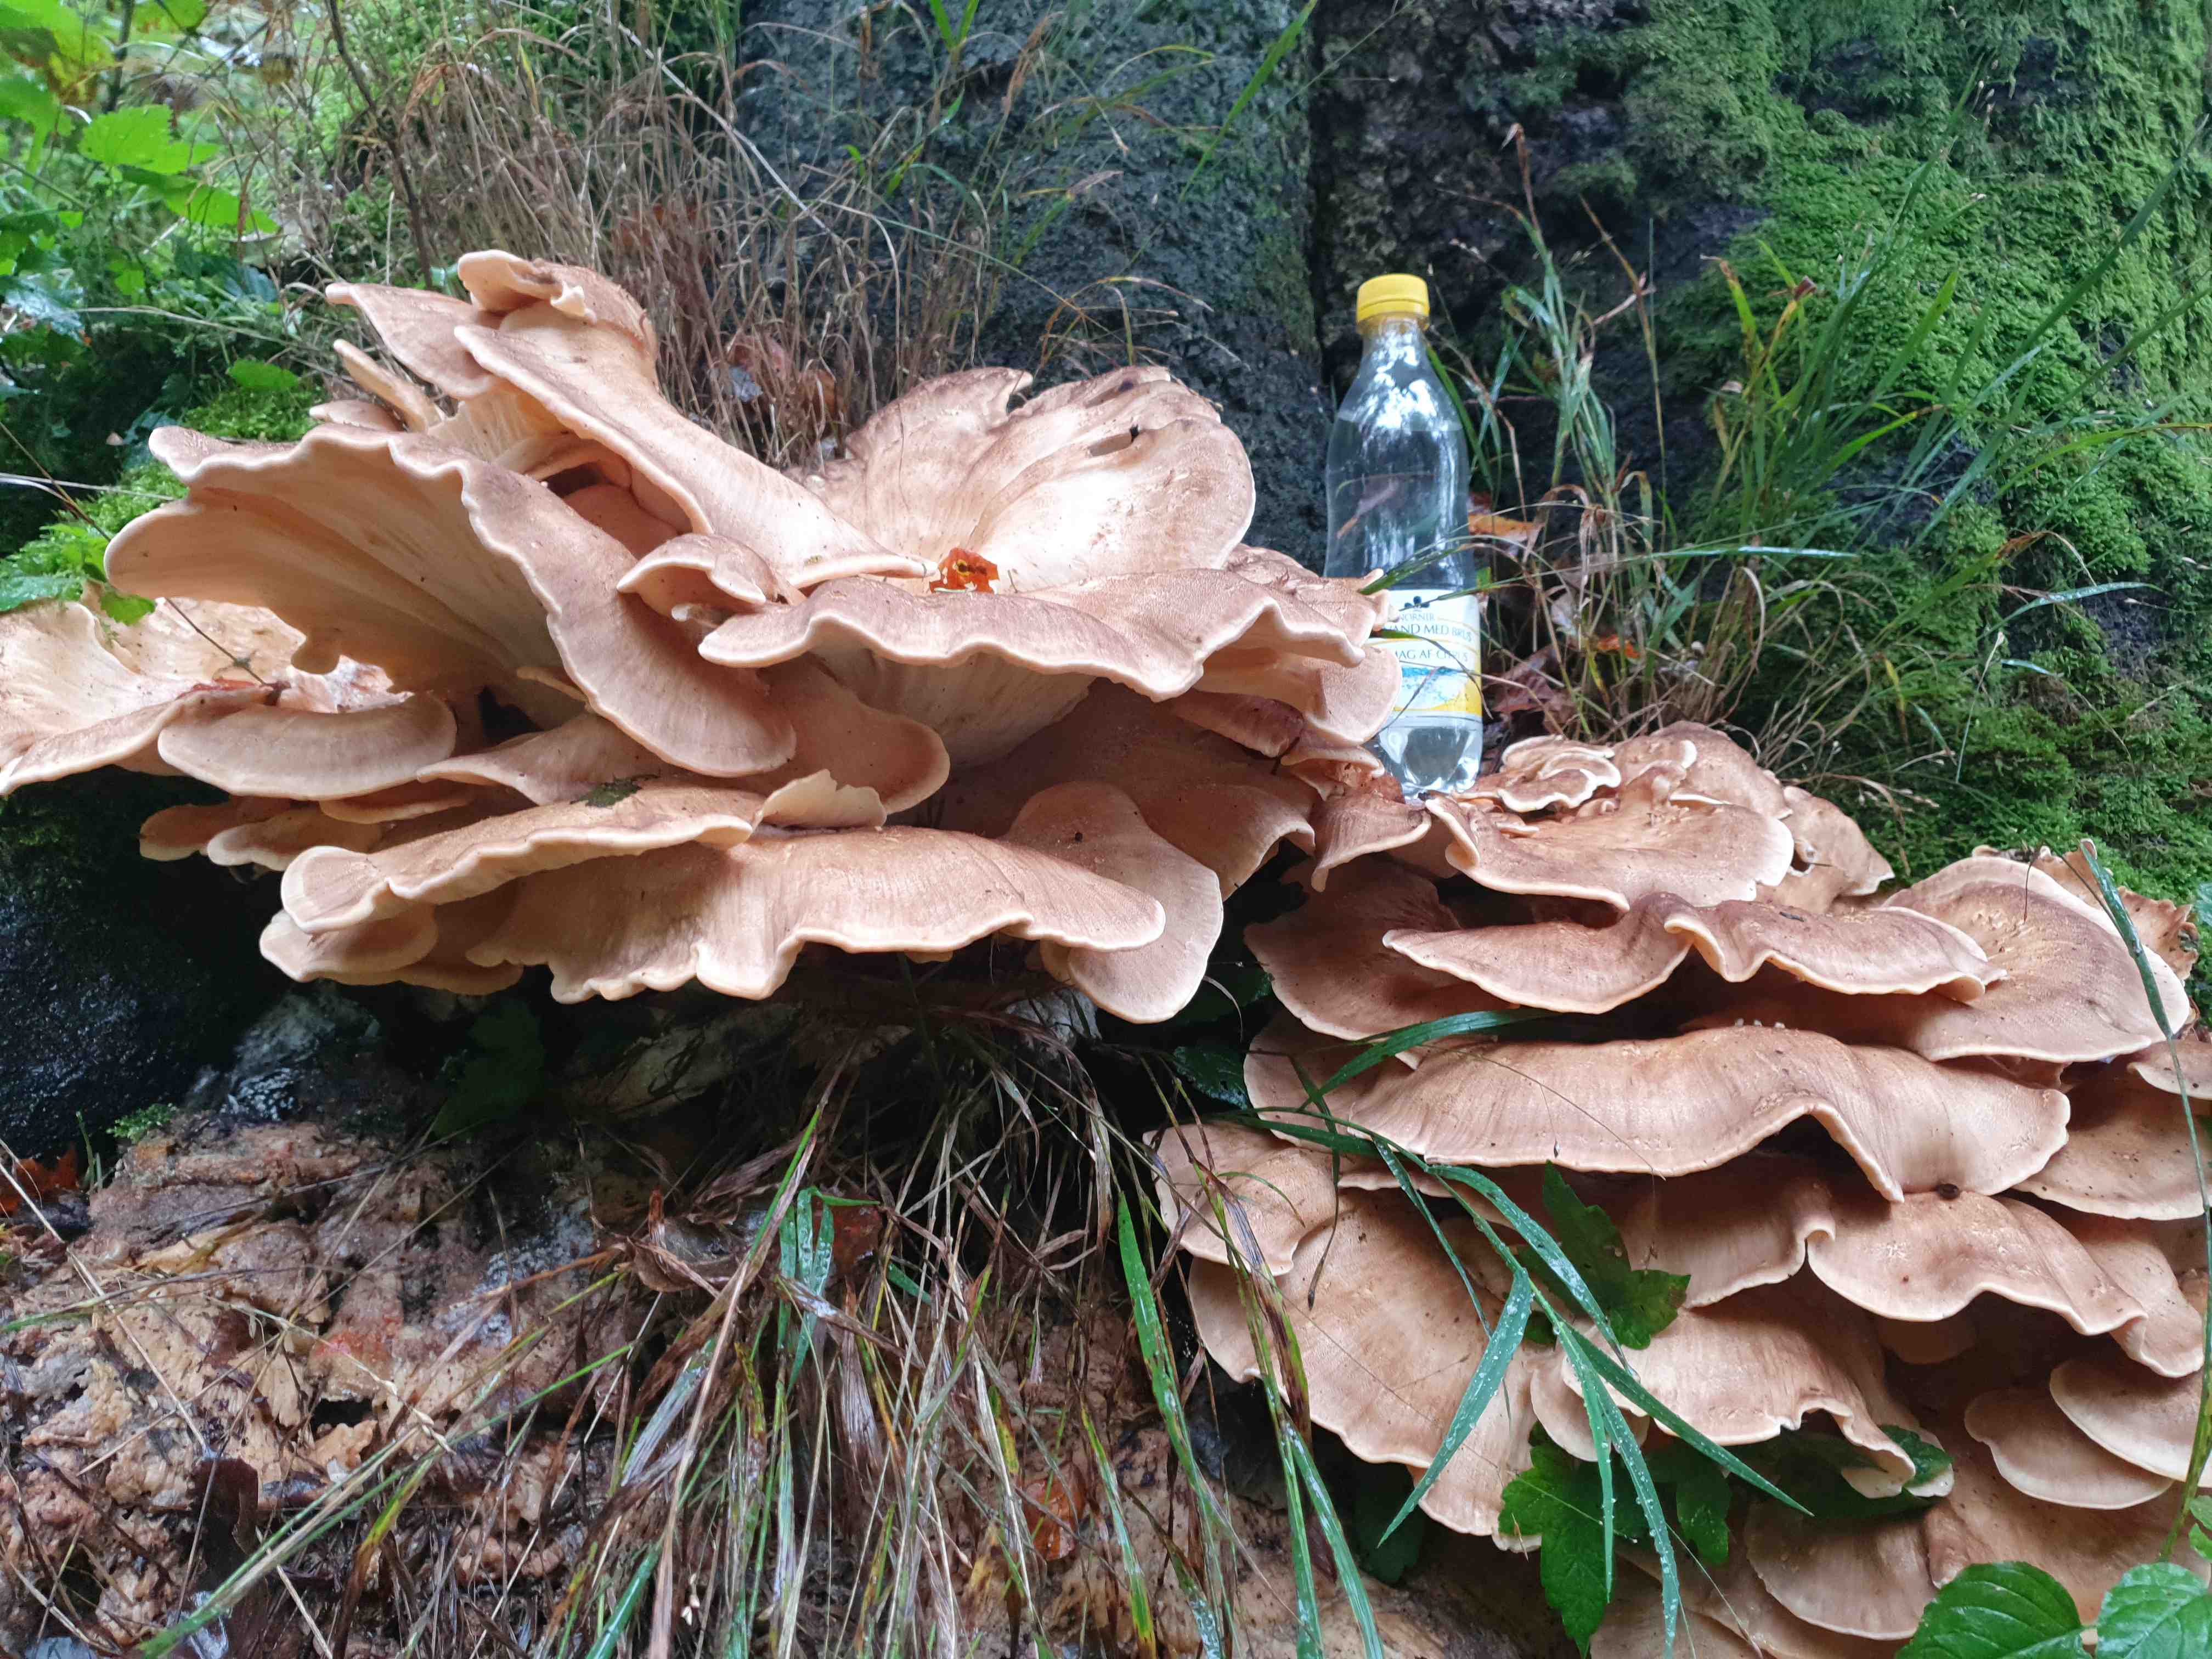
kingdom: Fungi
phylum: Basidiomycota
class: Agaricomycetes
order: Polyporales
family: Meripilaceae
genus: Meripilus
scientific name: Meripilus giganteus
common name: kæmpeporesvamp
